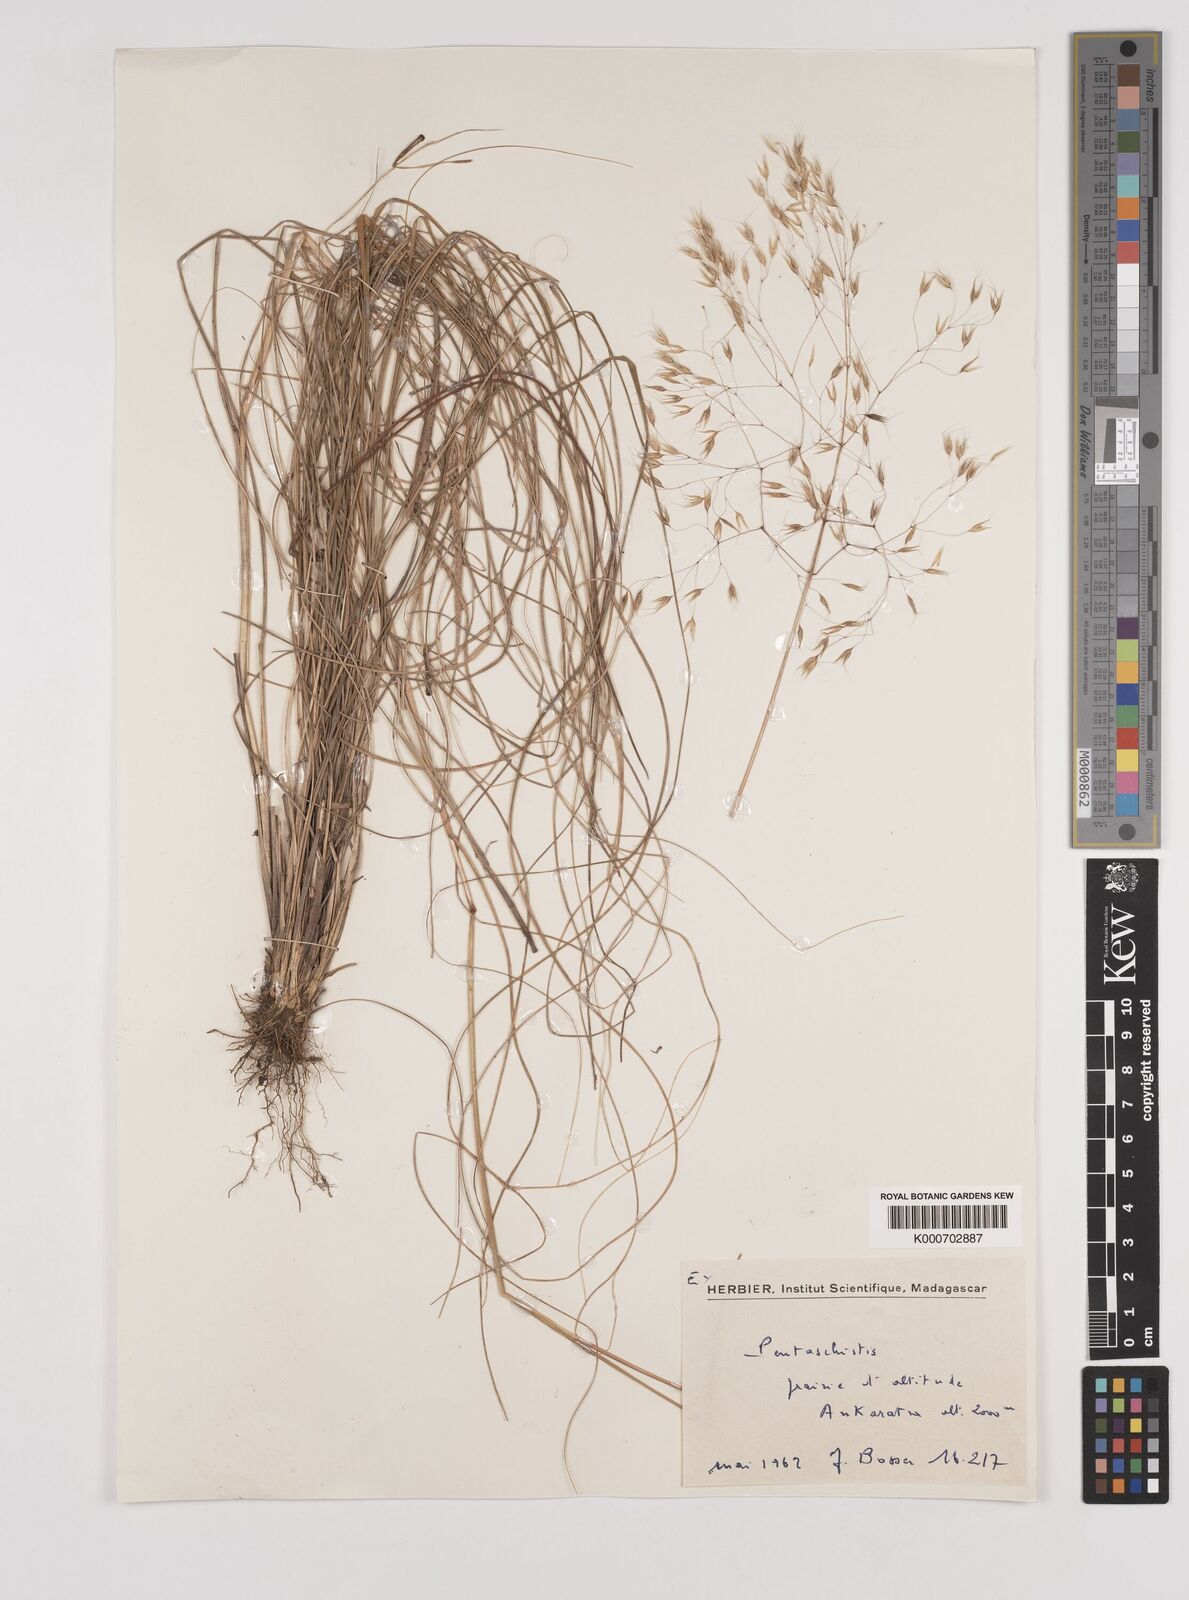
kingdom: Plantae
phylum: Tracheophyta
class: Liliopsida
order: Poales
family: Poaceae
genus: Pentameris
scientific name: Pentameris natalensis
